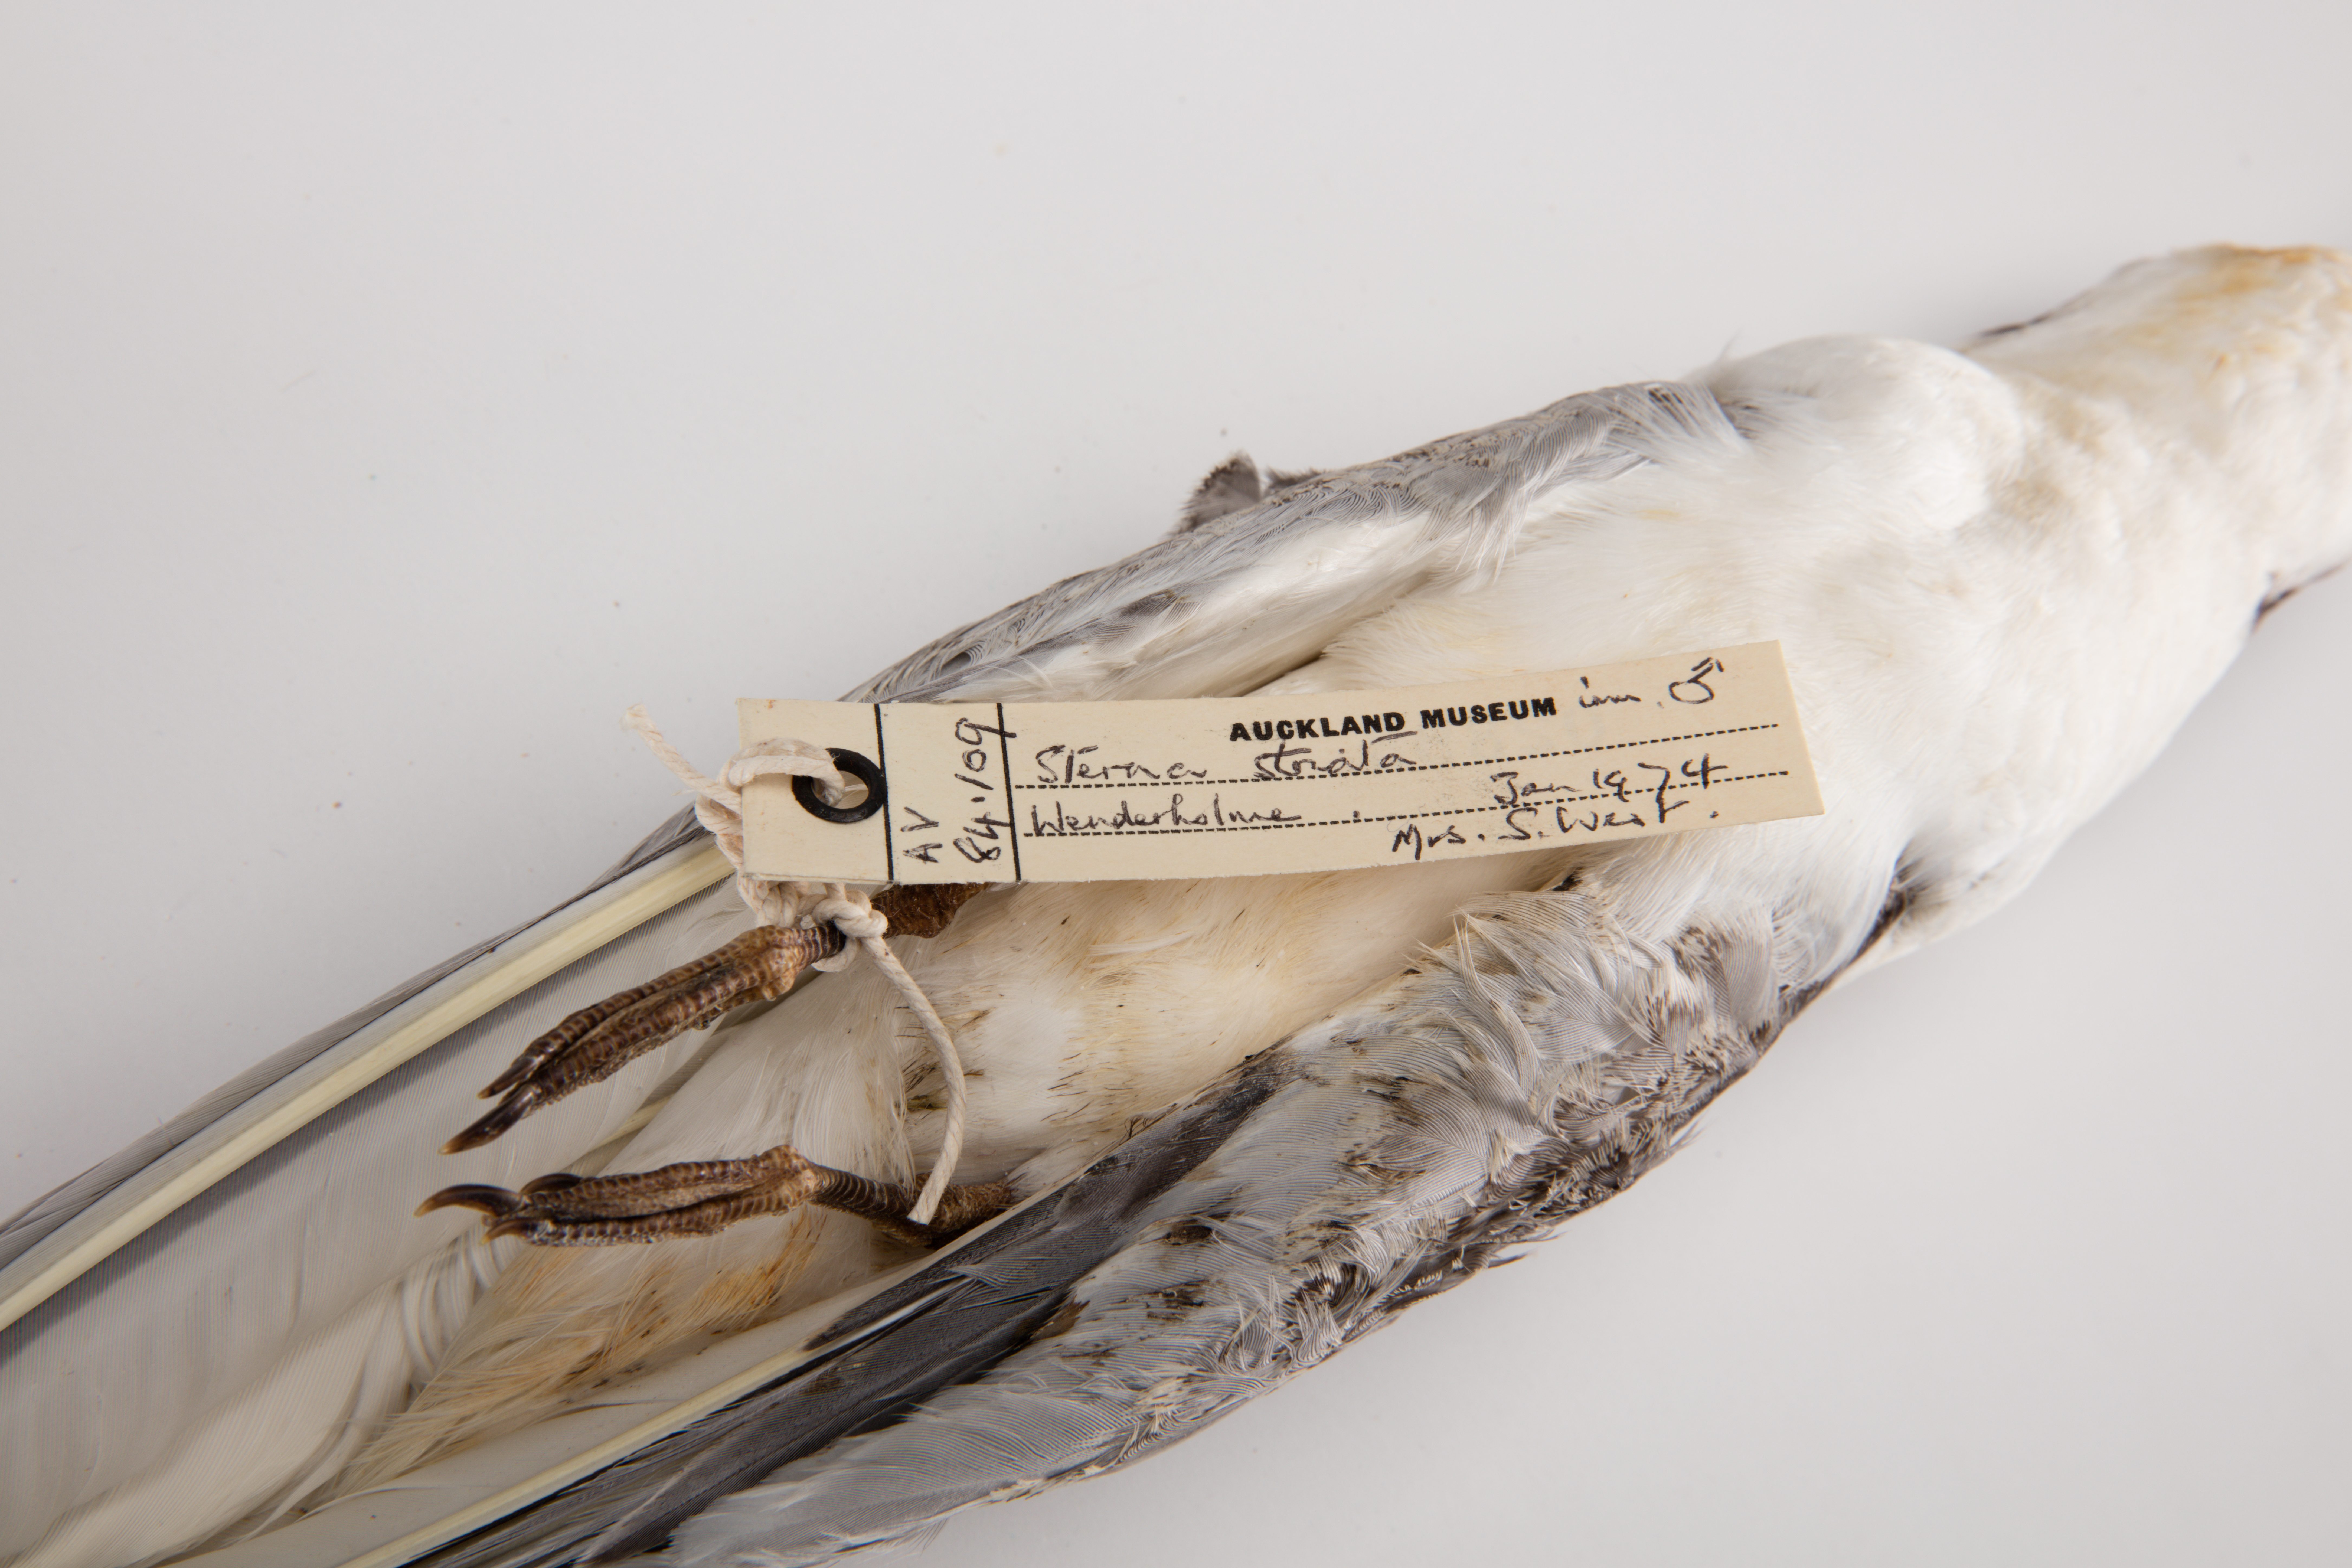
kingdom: Animalia
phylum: Chordata
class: Aves
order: Charadriiformes
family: Laridae
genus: Sterna
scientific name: Sterna striata
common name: White-fronted tern
